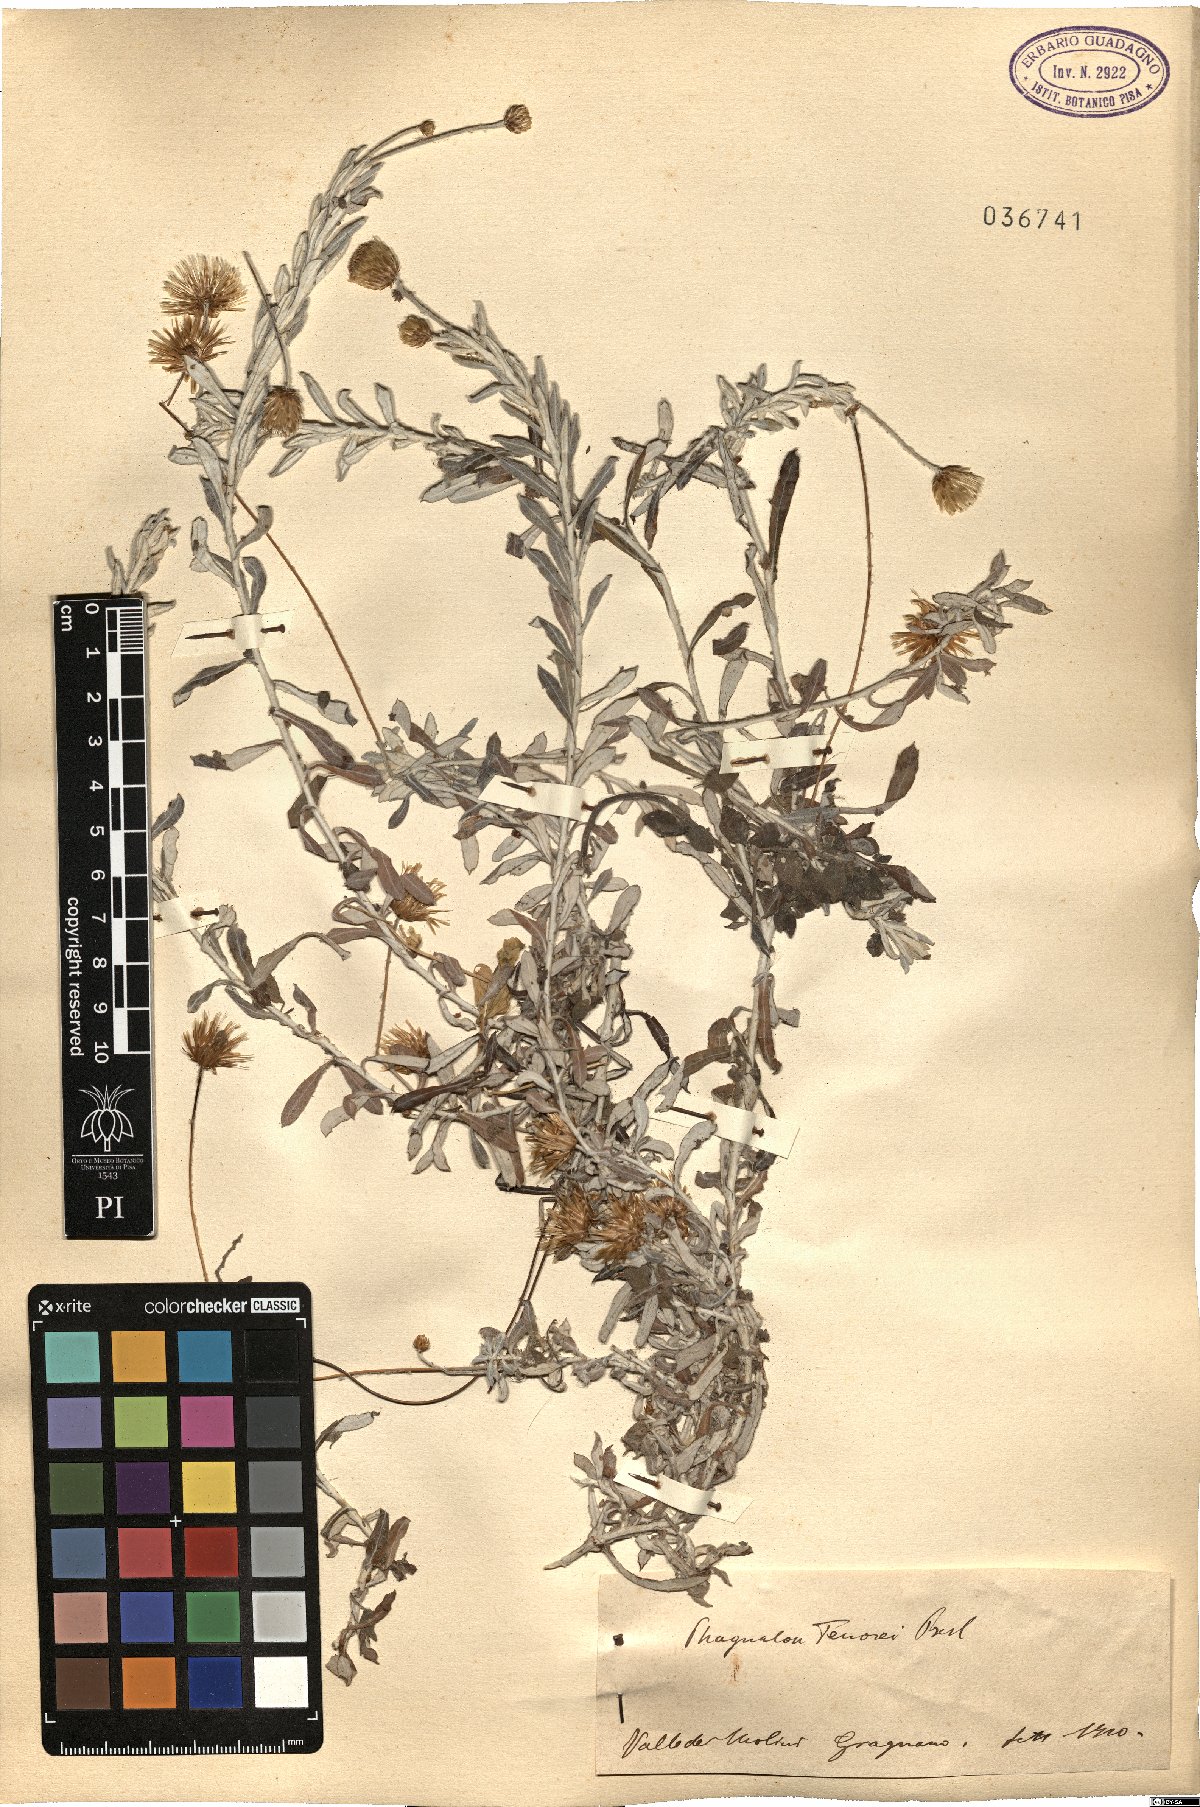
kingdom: Plantae
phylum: Tracheophyta
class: Magnoliopsida
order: Asterales
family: Asteraceae
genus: Phagnalon
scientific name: Phagnalon graecum
